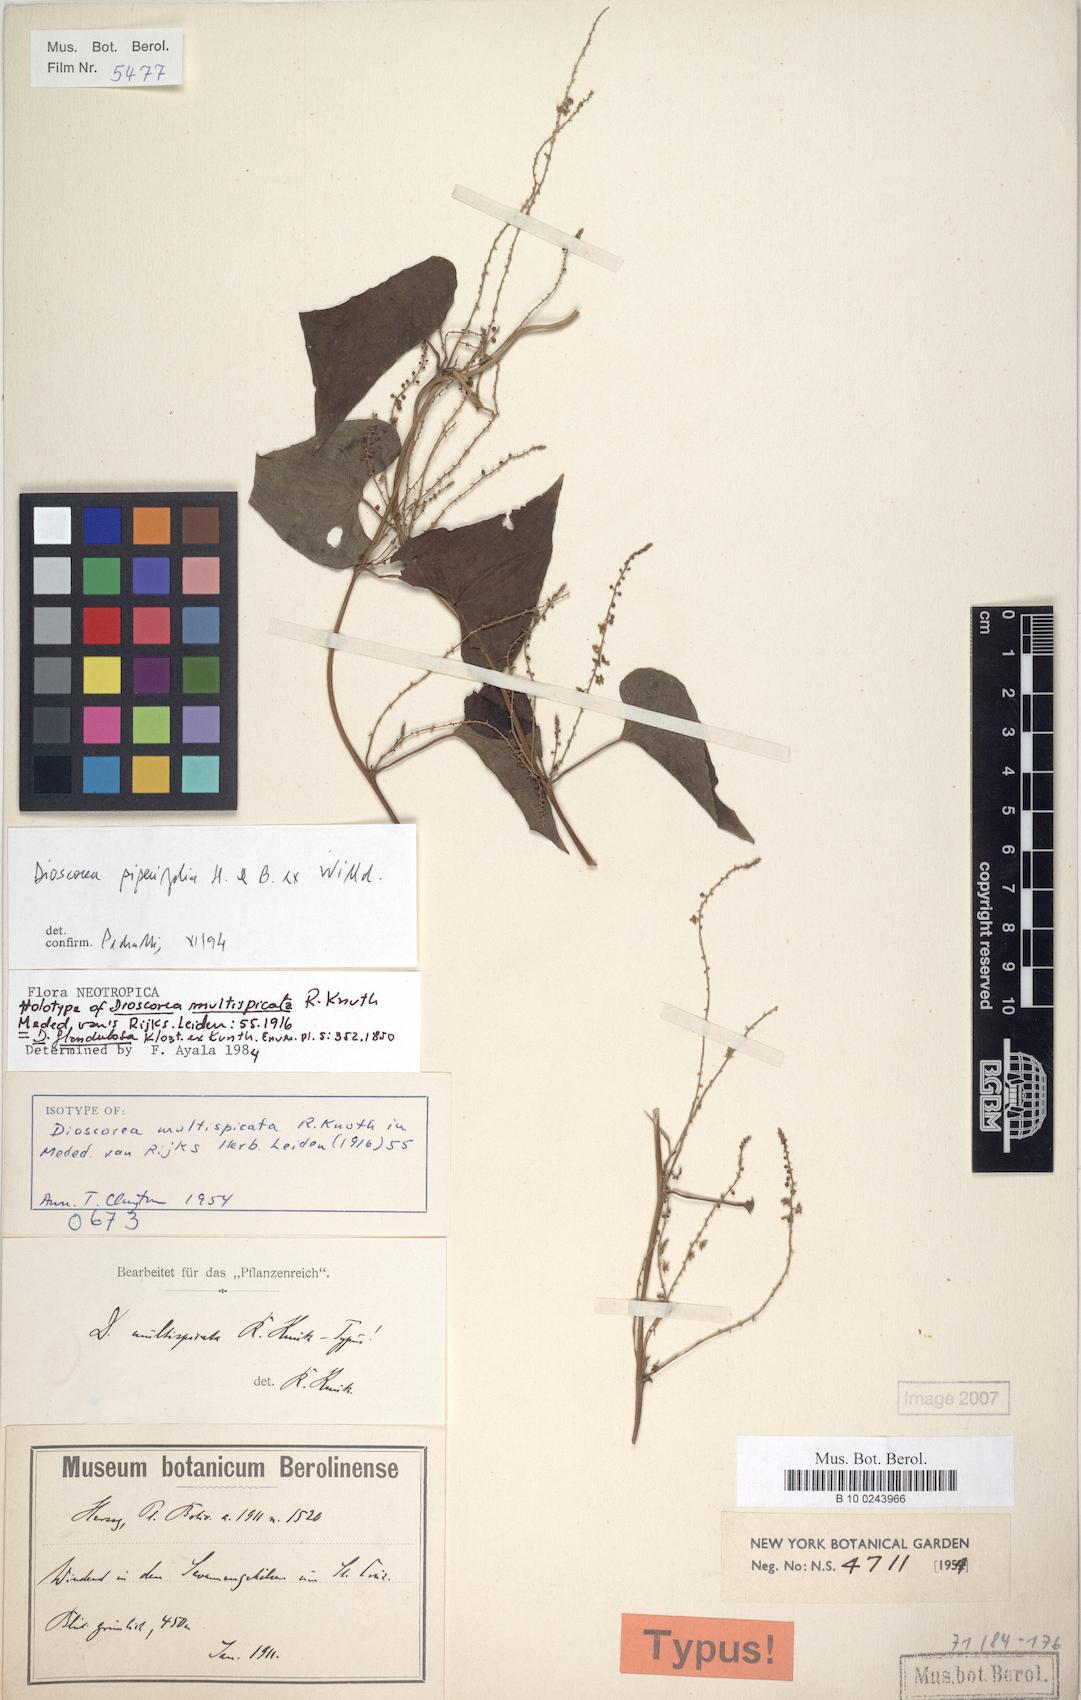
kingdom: Plantae
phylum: Tracheophyta
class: Liliopsida
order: Dioscoreales
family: Dioscoreaceae
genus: Dioscorea
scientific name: Dioscorea glandulosa
